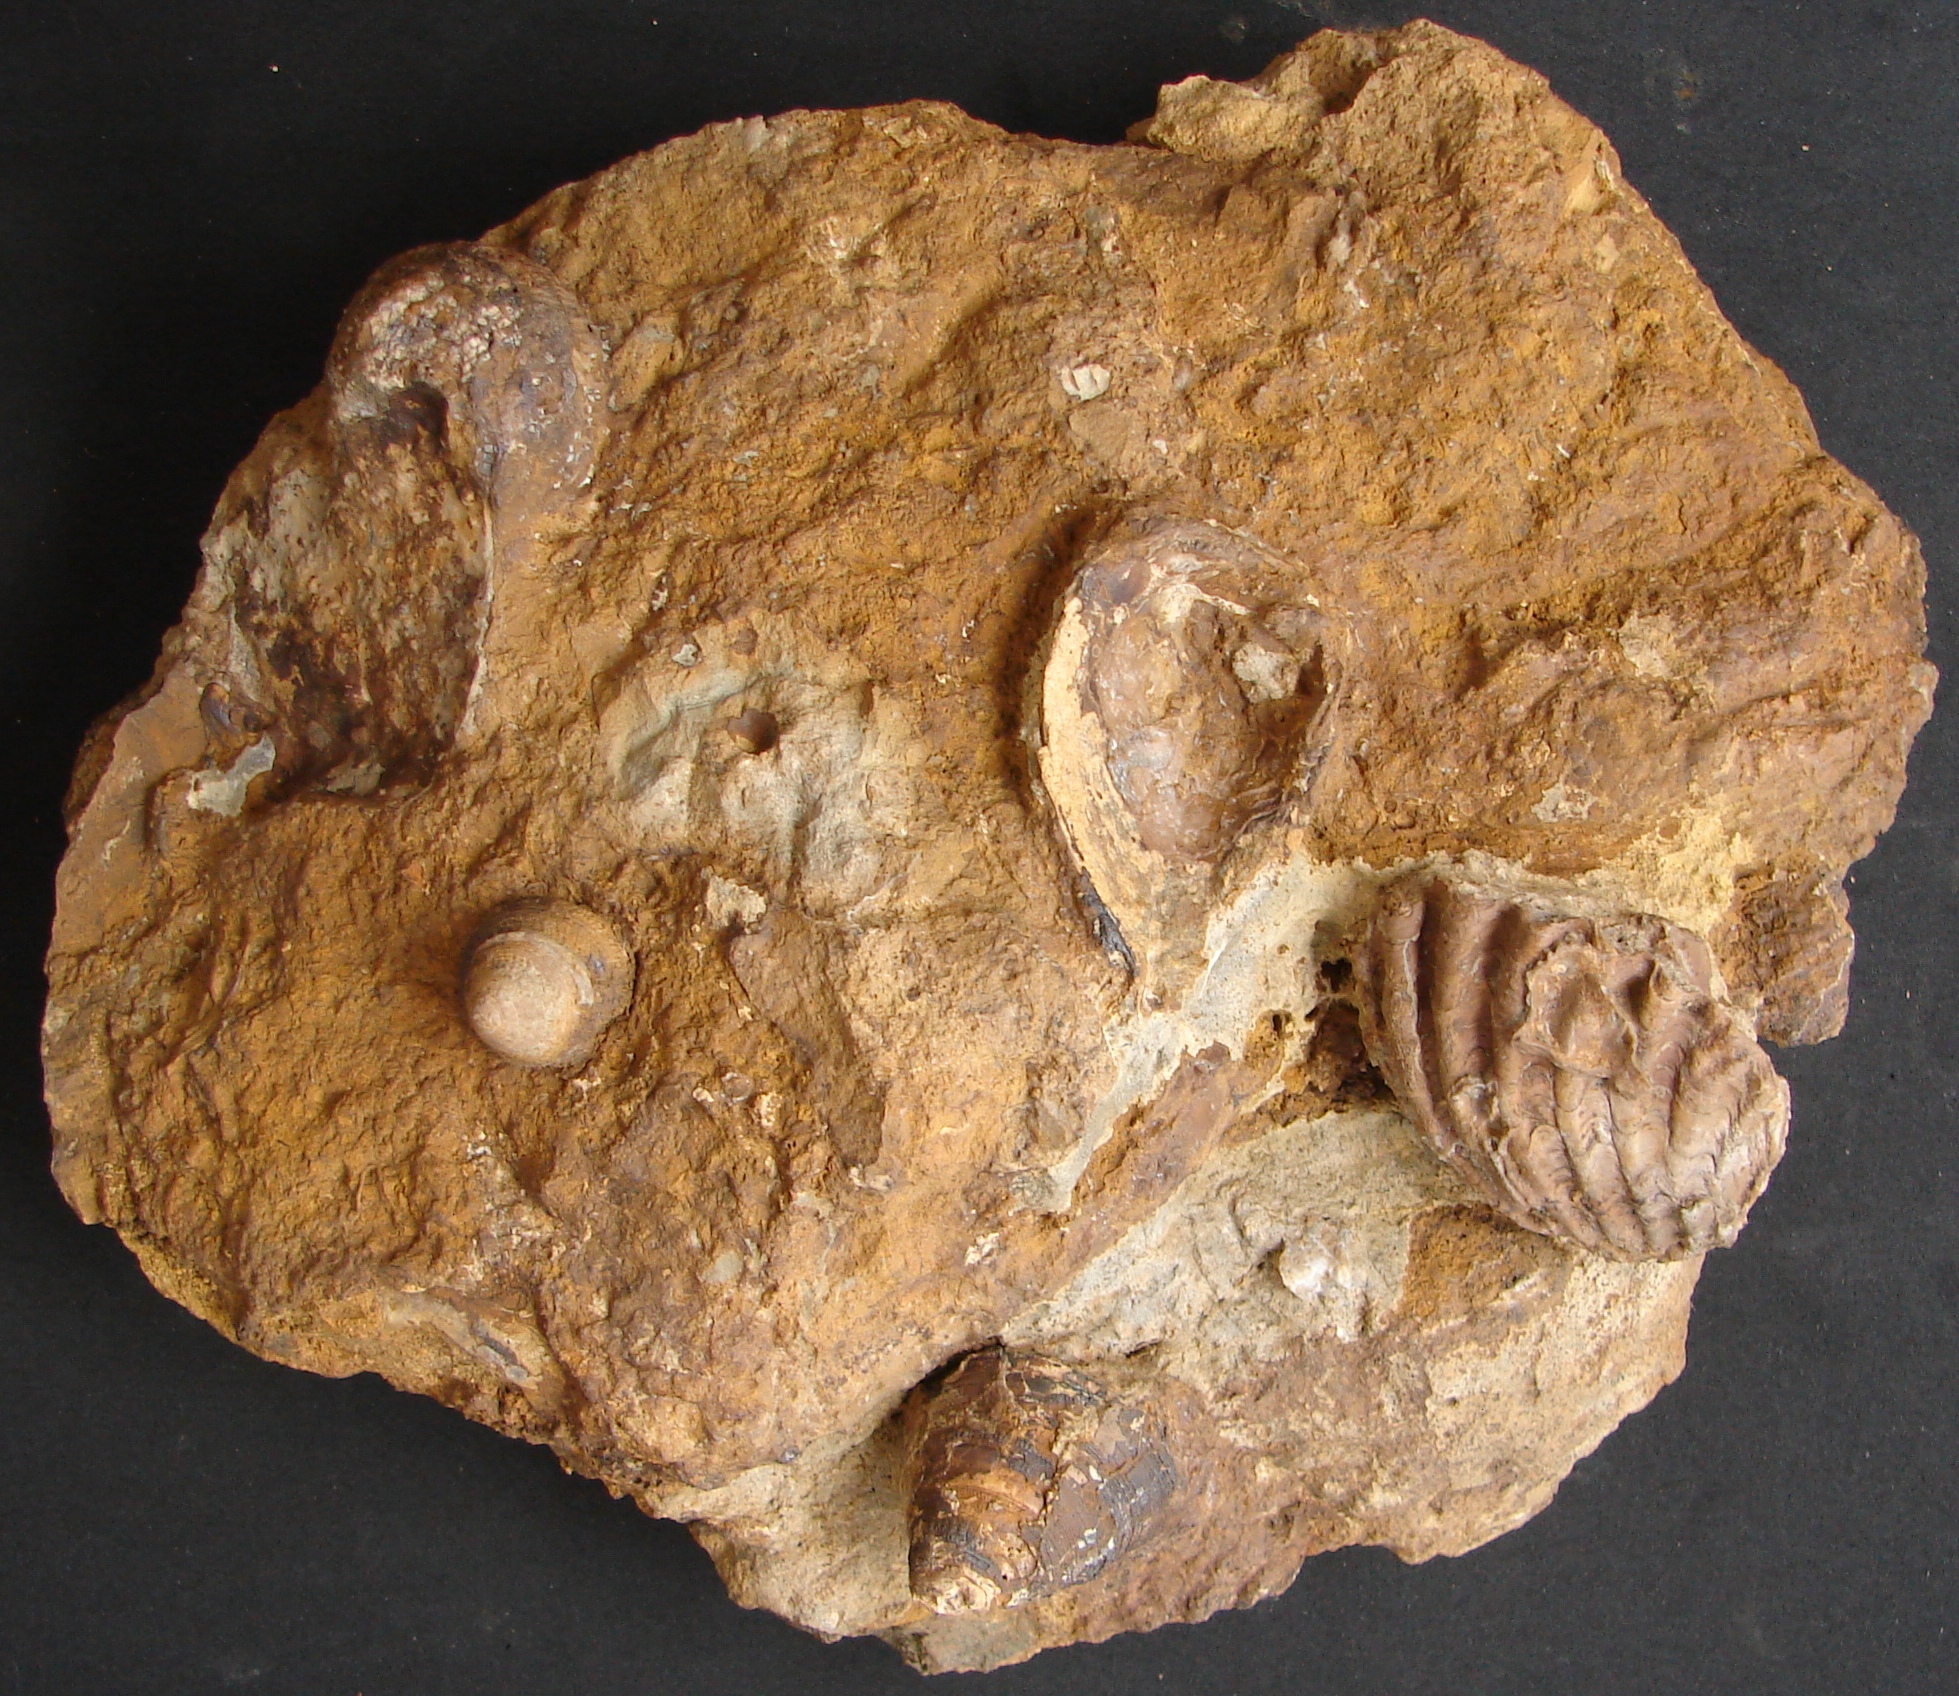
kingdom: Animalia
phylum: Mollusca
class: Gastropoda
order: Pleurotomariida
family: Pleurotomariidae
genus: Pyrgotrochus
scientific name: Pyrgotrochus elongatus
